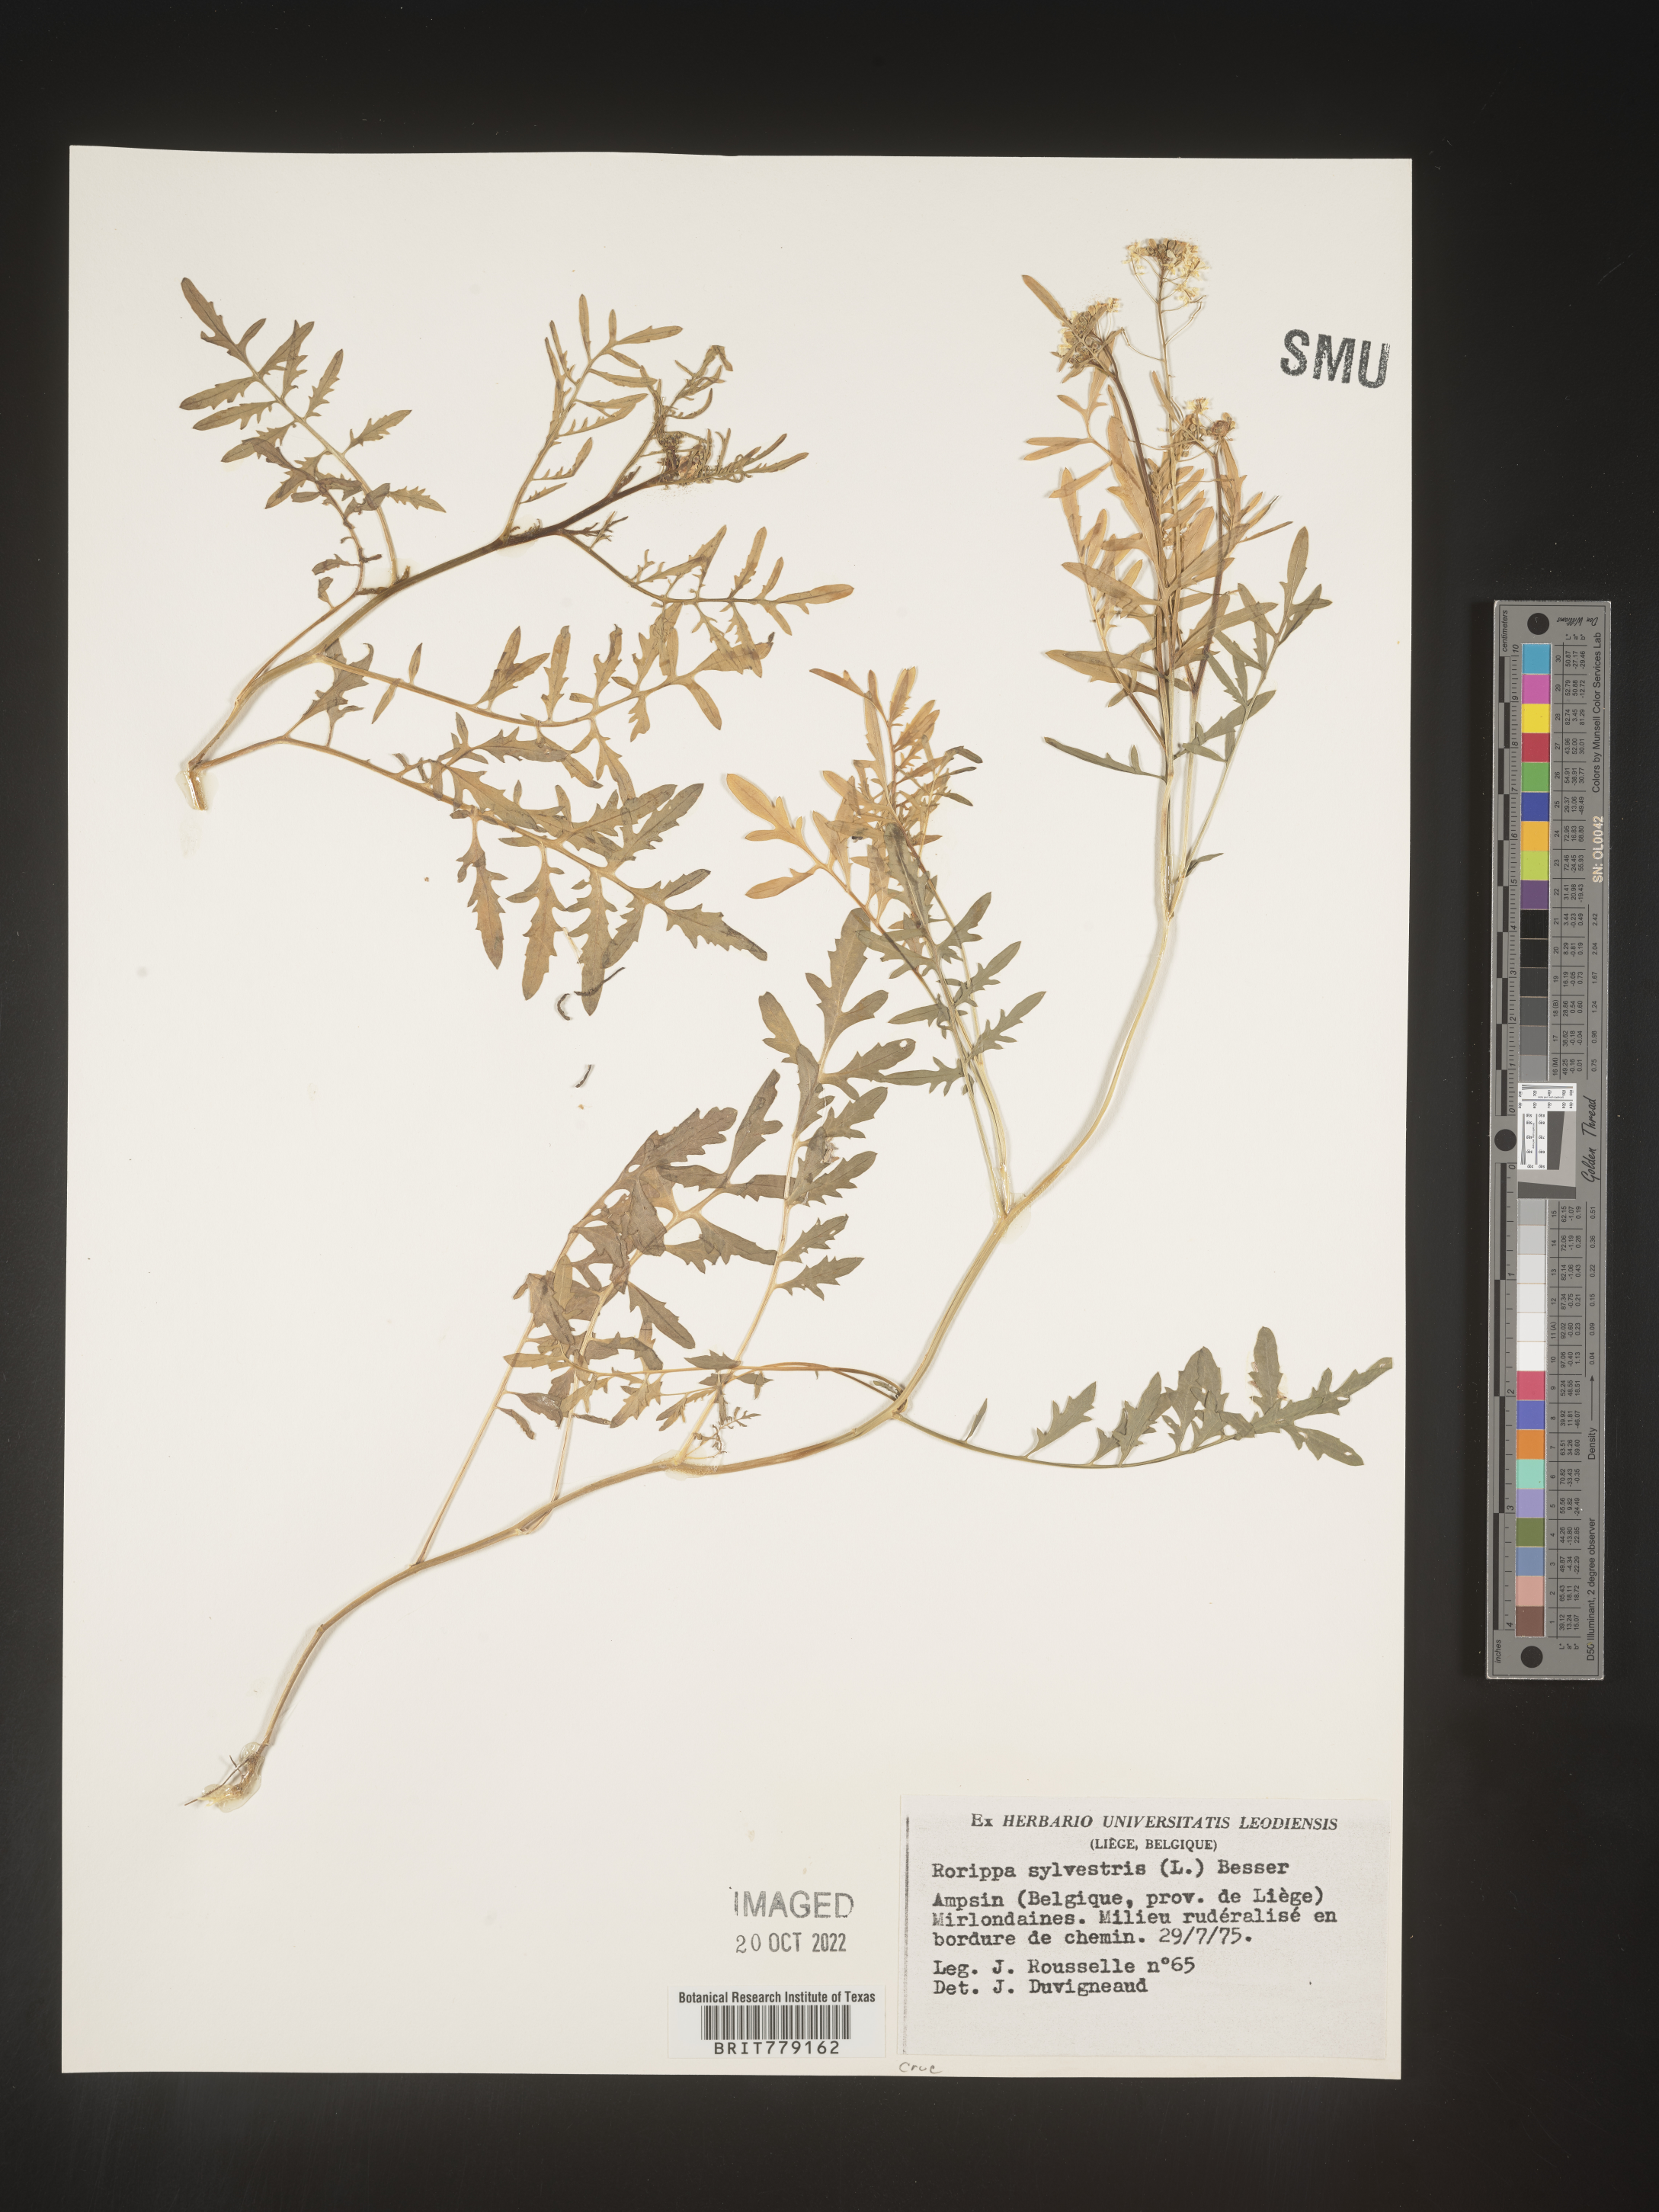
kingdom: Plantae
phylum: Tracheophyta
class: Magnoliopsida
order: Brassicales
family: Brassicaceae
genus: Rorippa
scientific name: Rorippa
